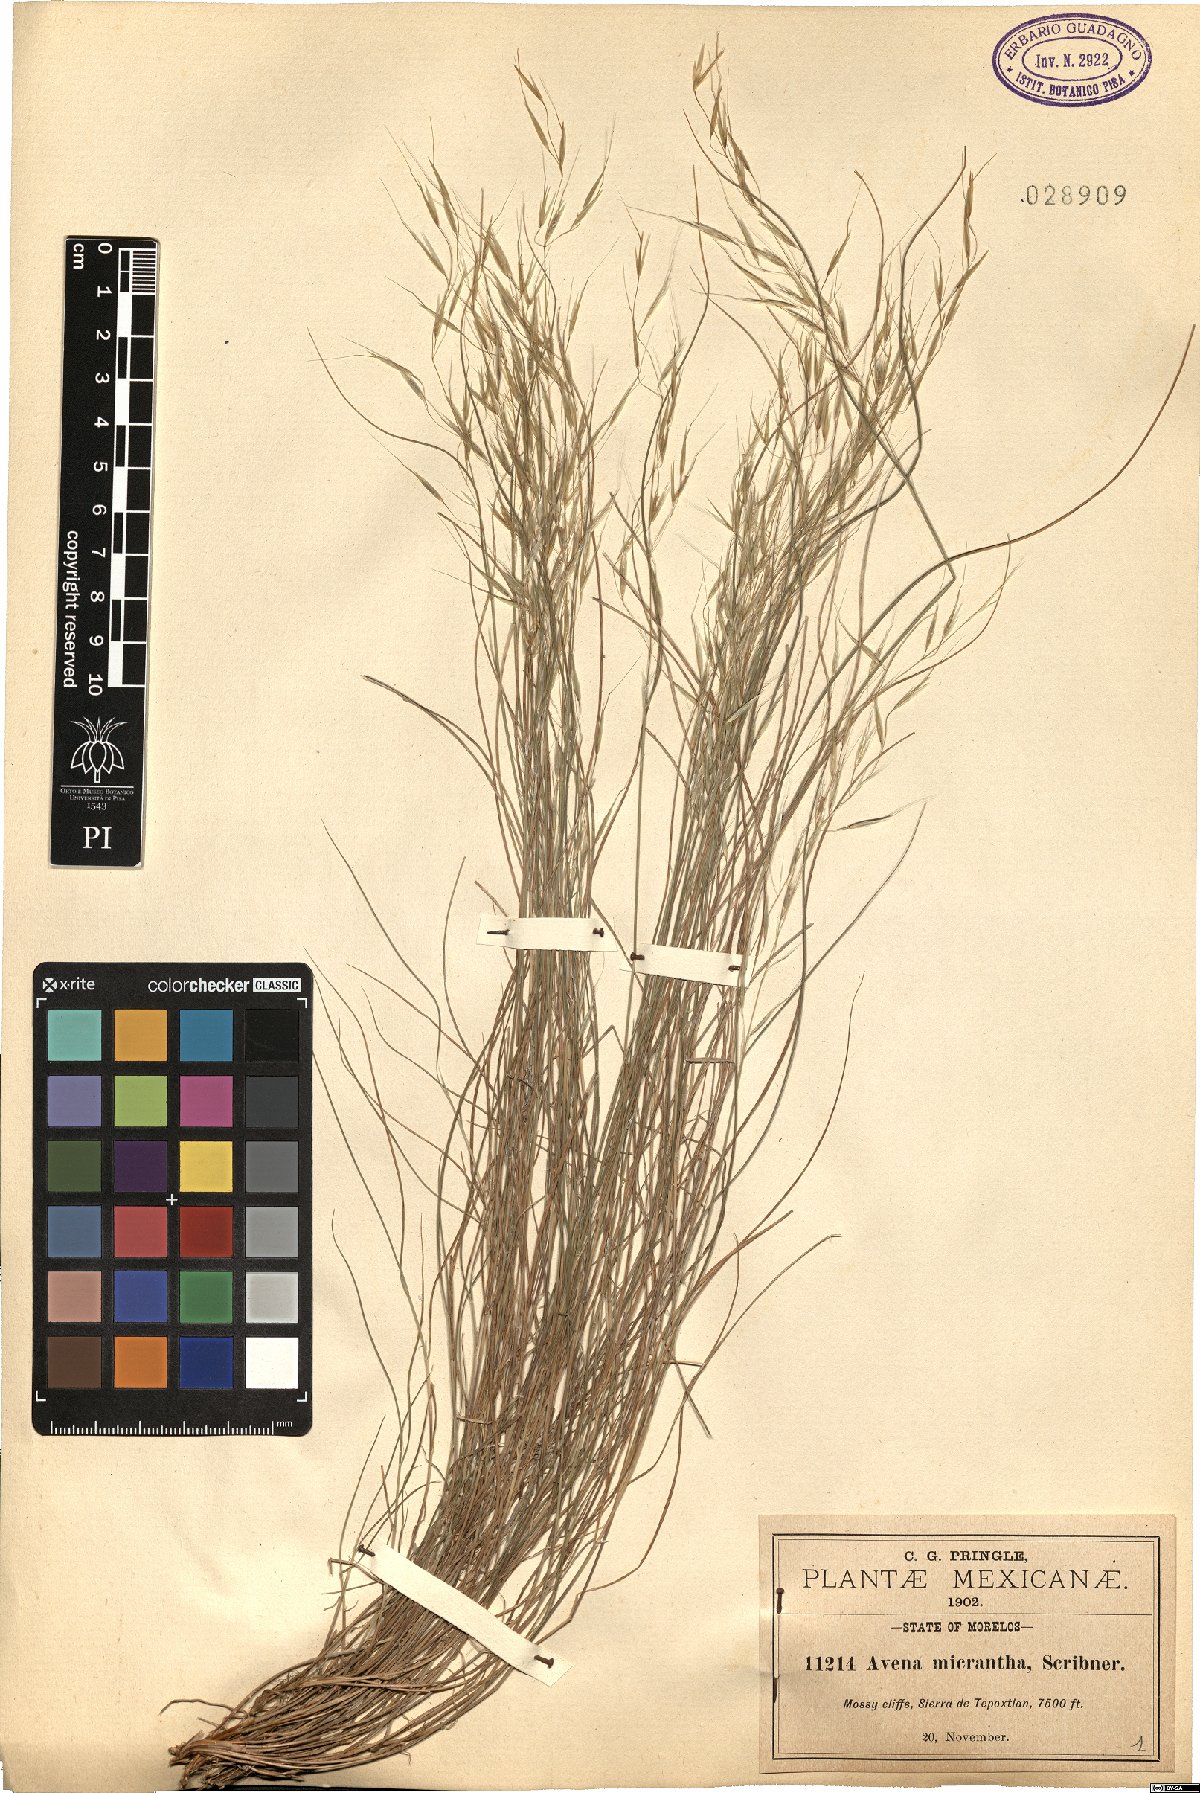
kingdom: Plantae
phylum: Tracheophyta
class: Liliopsida
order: Poales
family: Poaceae
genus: Triniochloa
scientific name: Triniochloa micrantha
